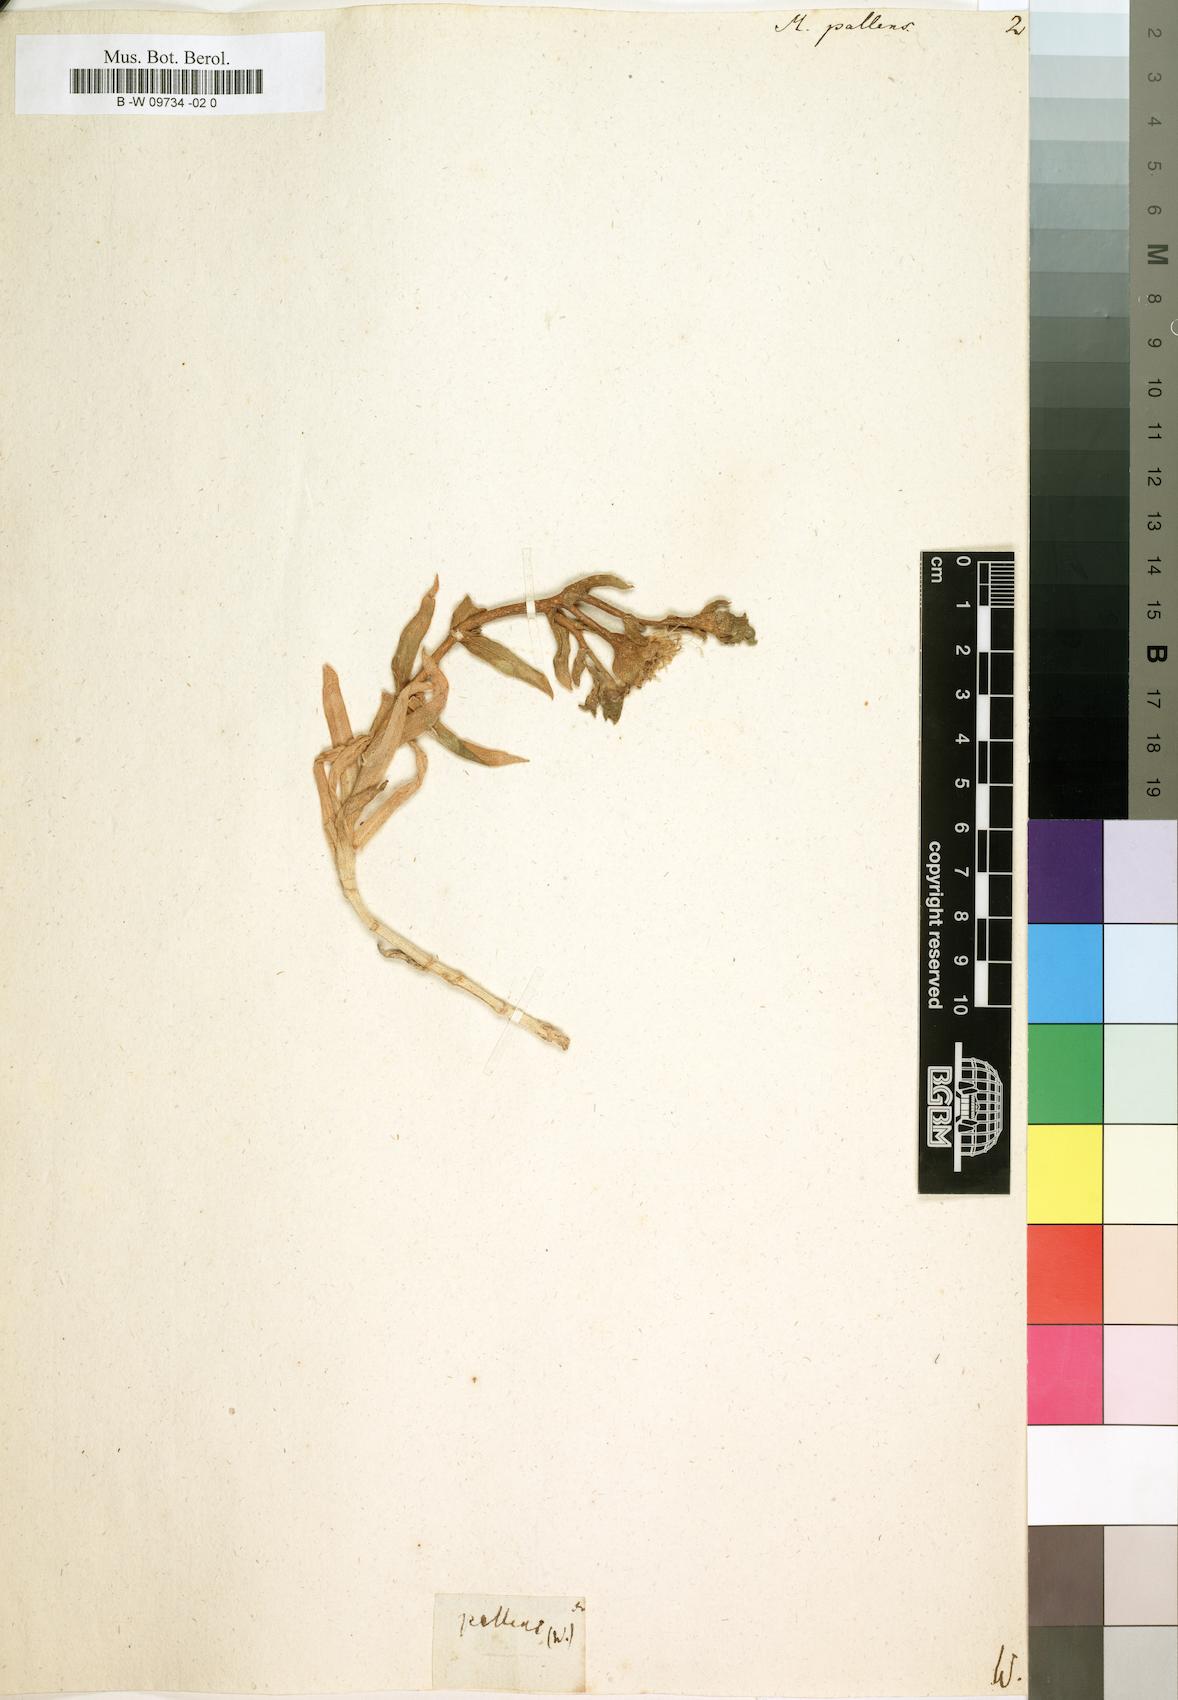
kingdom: Plantae
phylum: Tracheophyta
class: Magnoliopsida
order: Caryophyllales
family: Aizoaceae
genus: Mesembryanthemum
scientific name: Mesembryanthemum pallens
